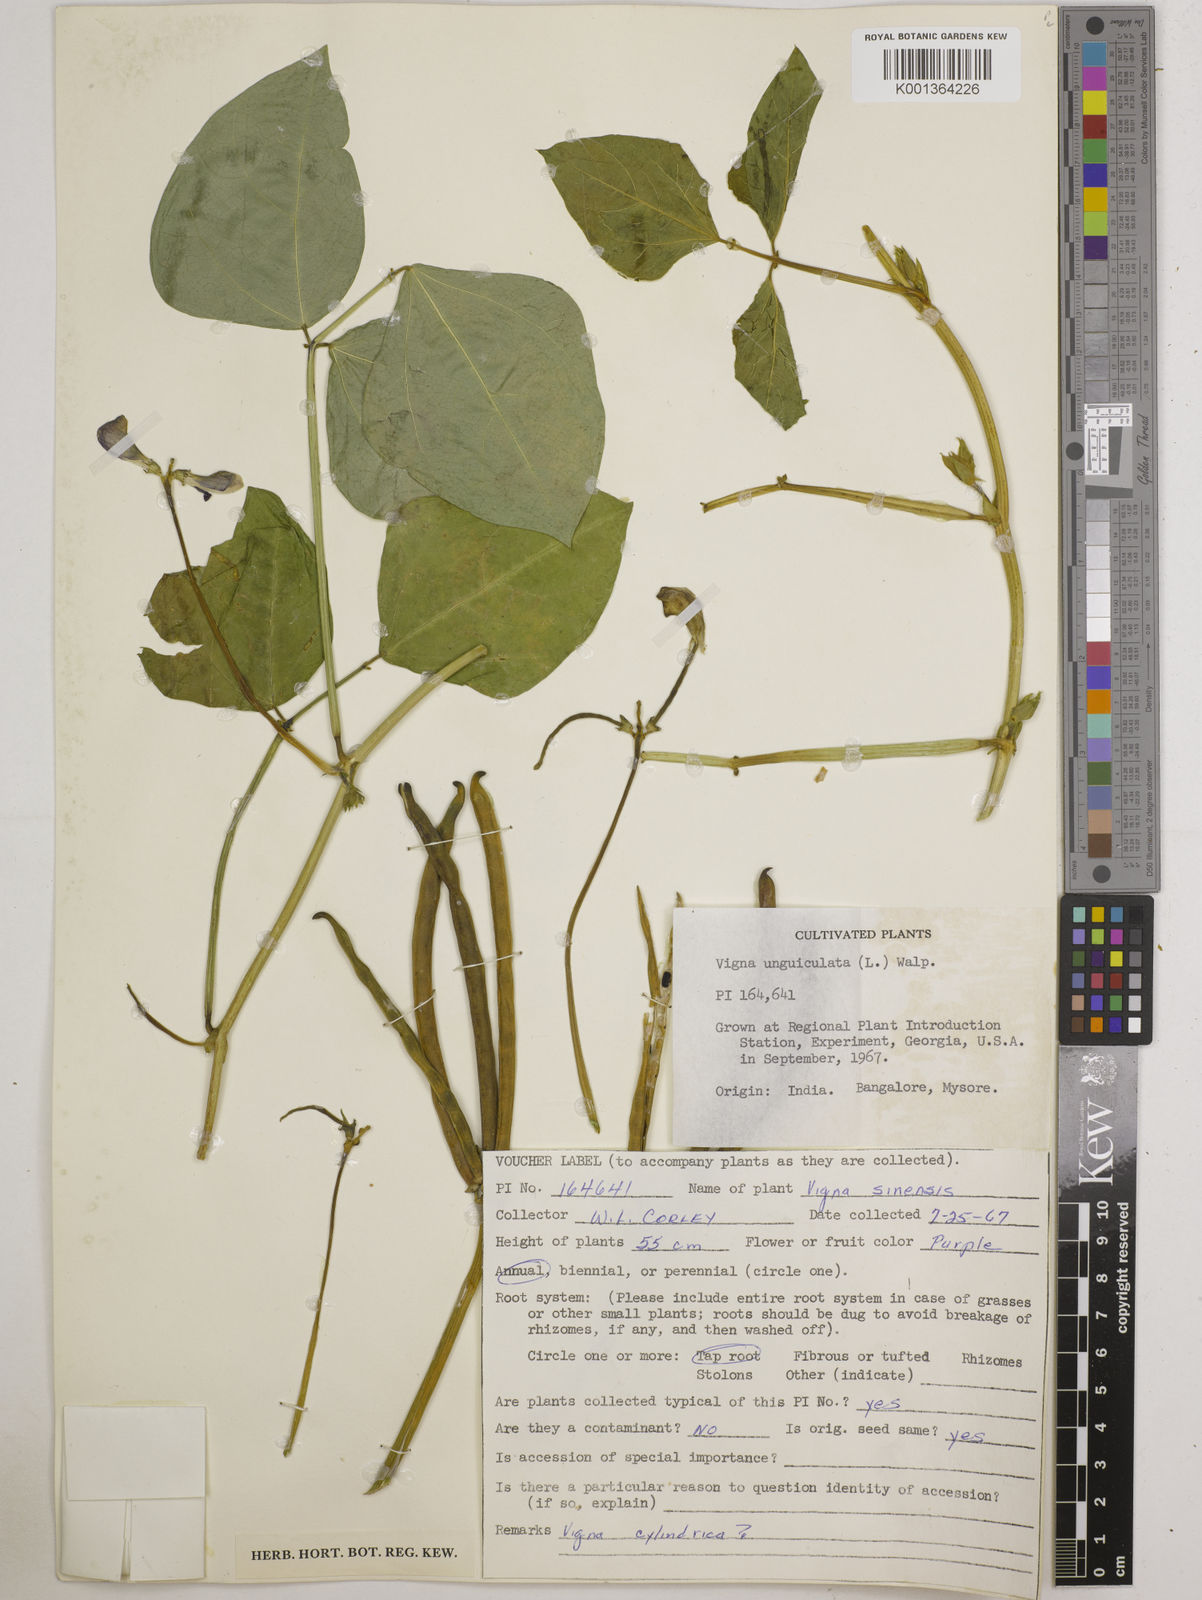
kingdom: Plantae
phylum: Tracheophyta
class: Magnoliopsida
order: Fabales
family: Fabaceae
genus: Vigna
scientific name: Vigna
